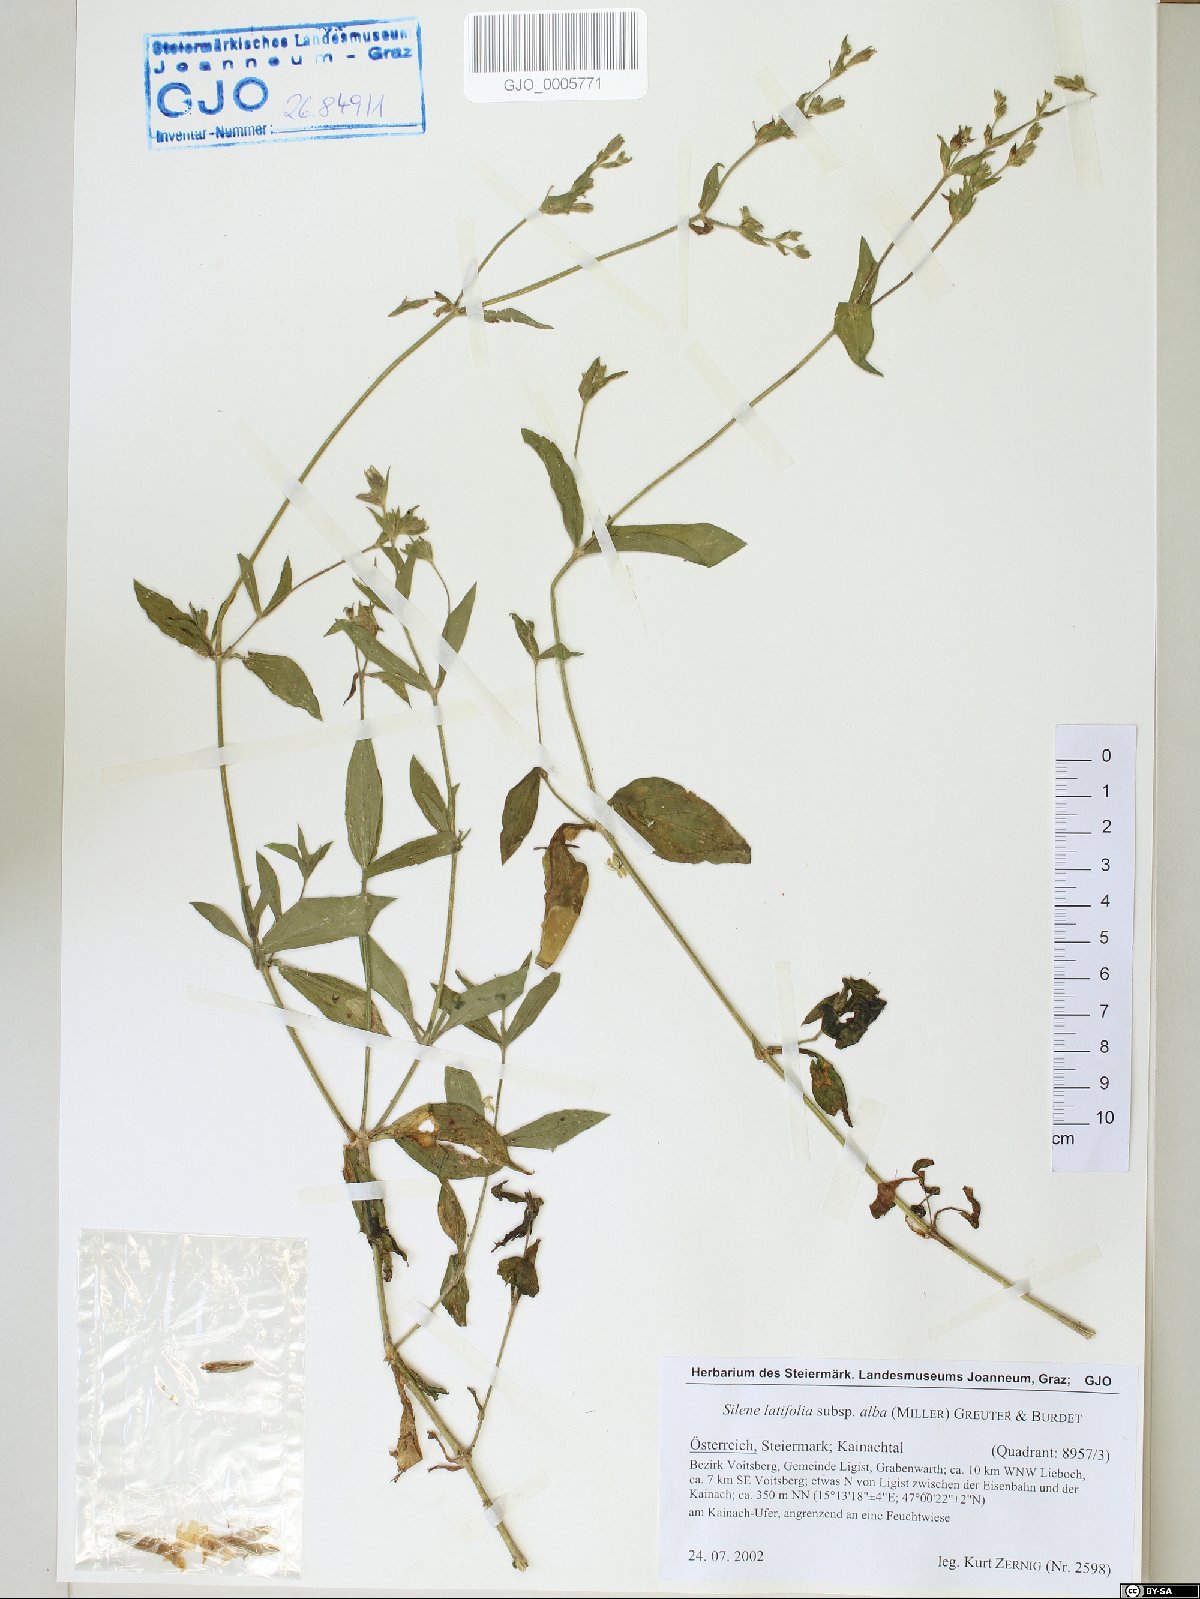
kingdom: Plantae
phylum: Tracheophyta
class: Magnoliopsida
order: Caryophyllales
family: Caryophyllaceae
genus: Silene
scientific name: Silene latifolia
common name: White campion
